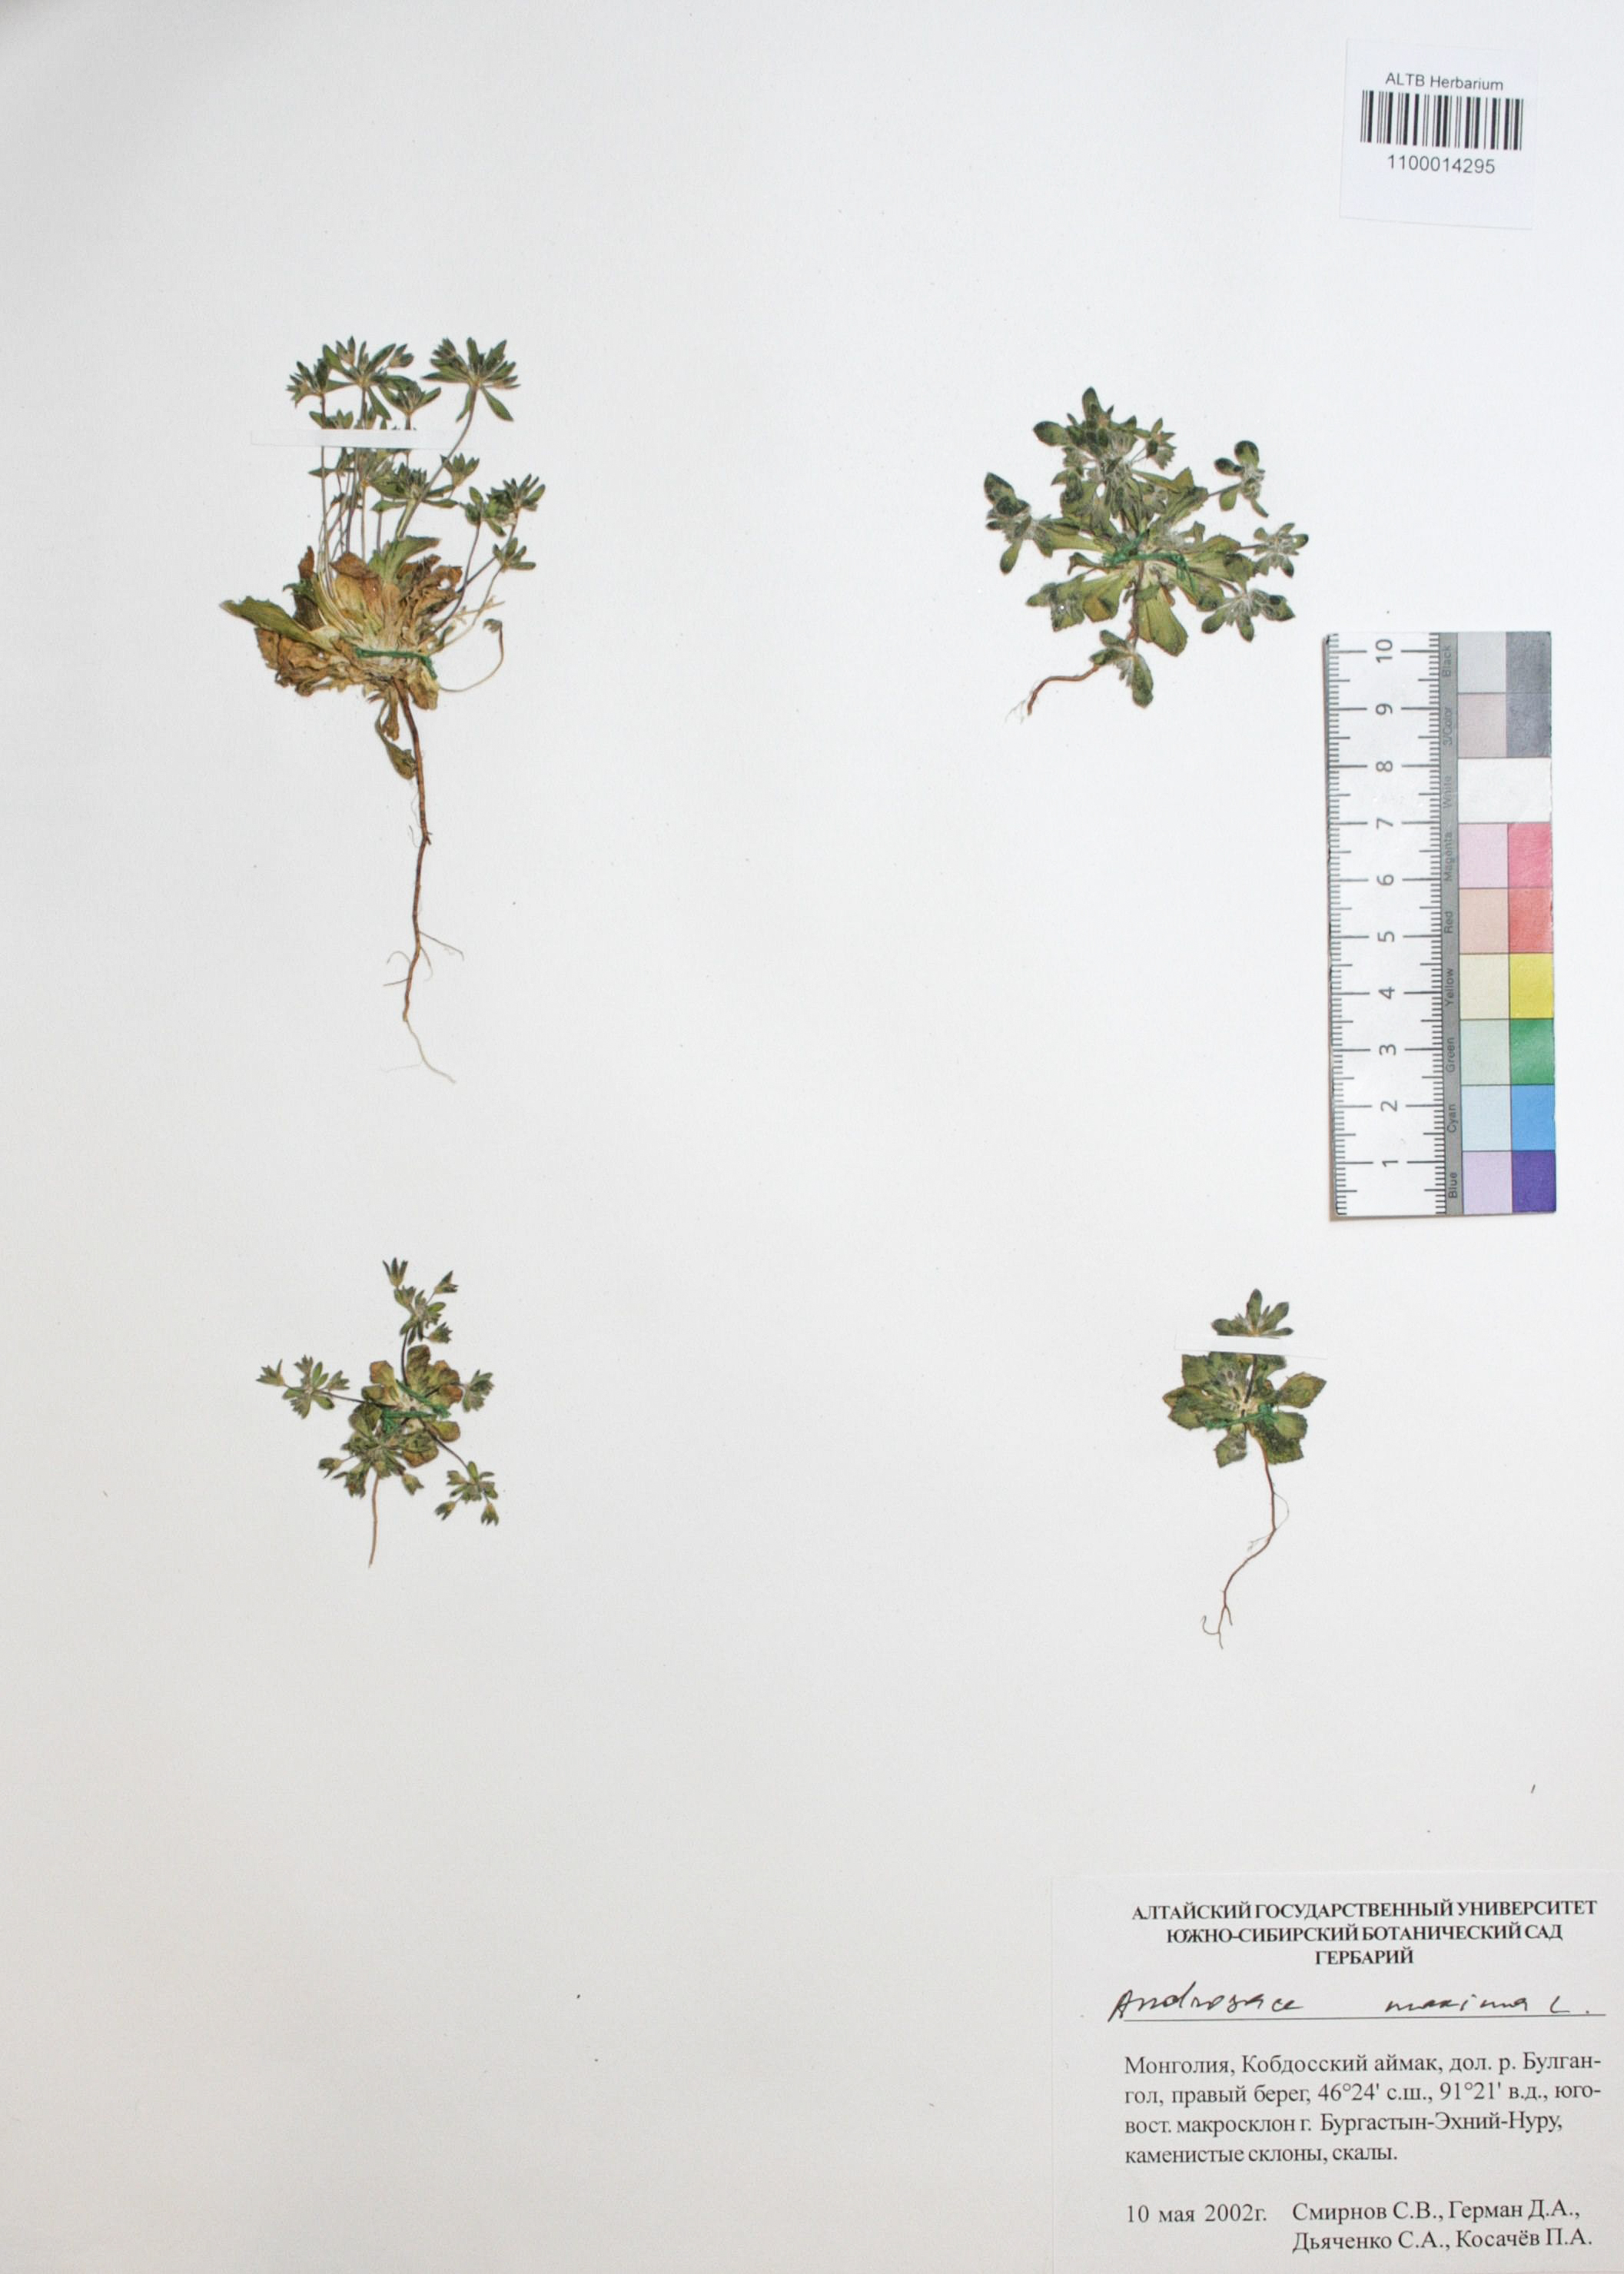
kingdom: Plantae
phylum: Tracheophyta
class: Magnoliopsida
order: Ericales
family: Primulaceae
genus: Androsace
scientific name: Androsace maxima
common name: Annual androsace
